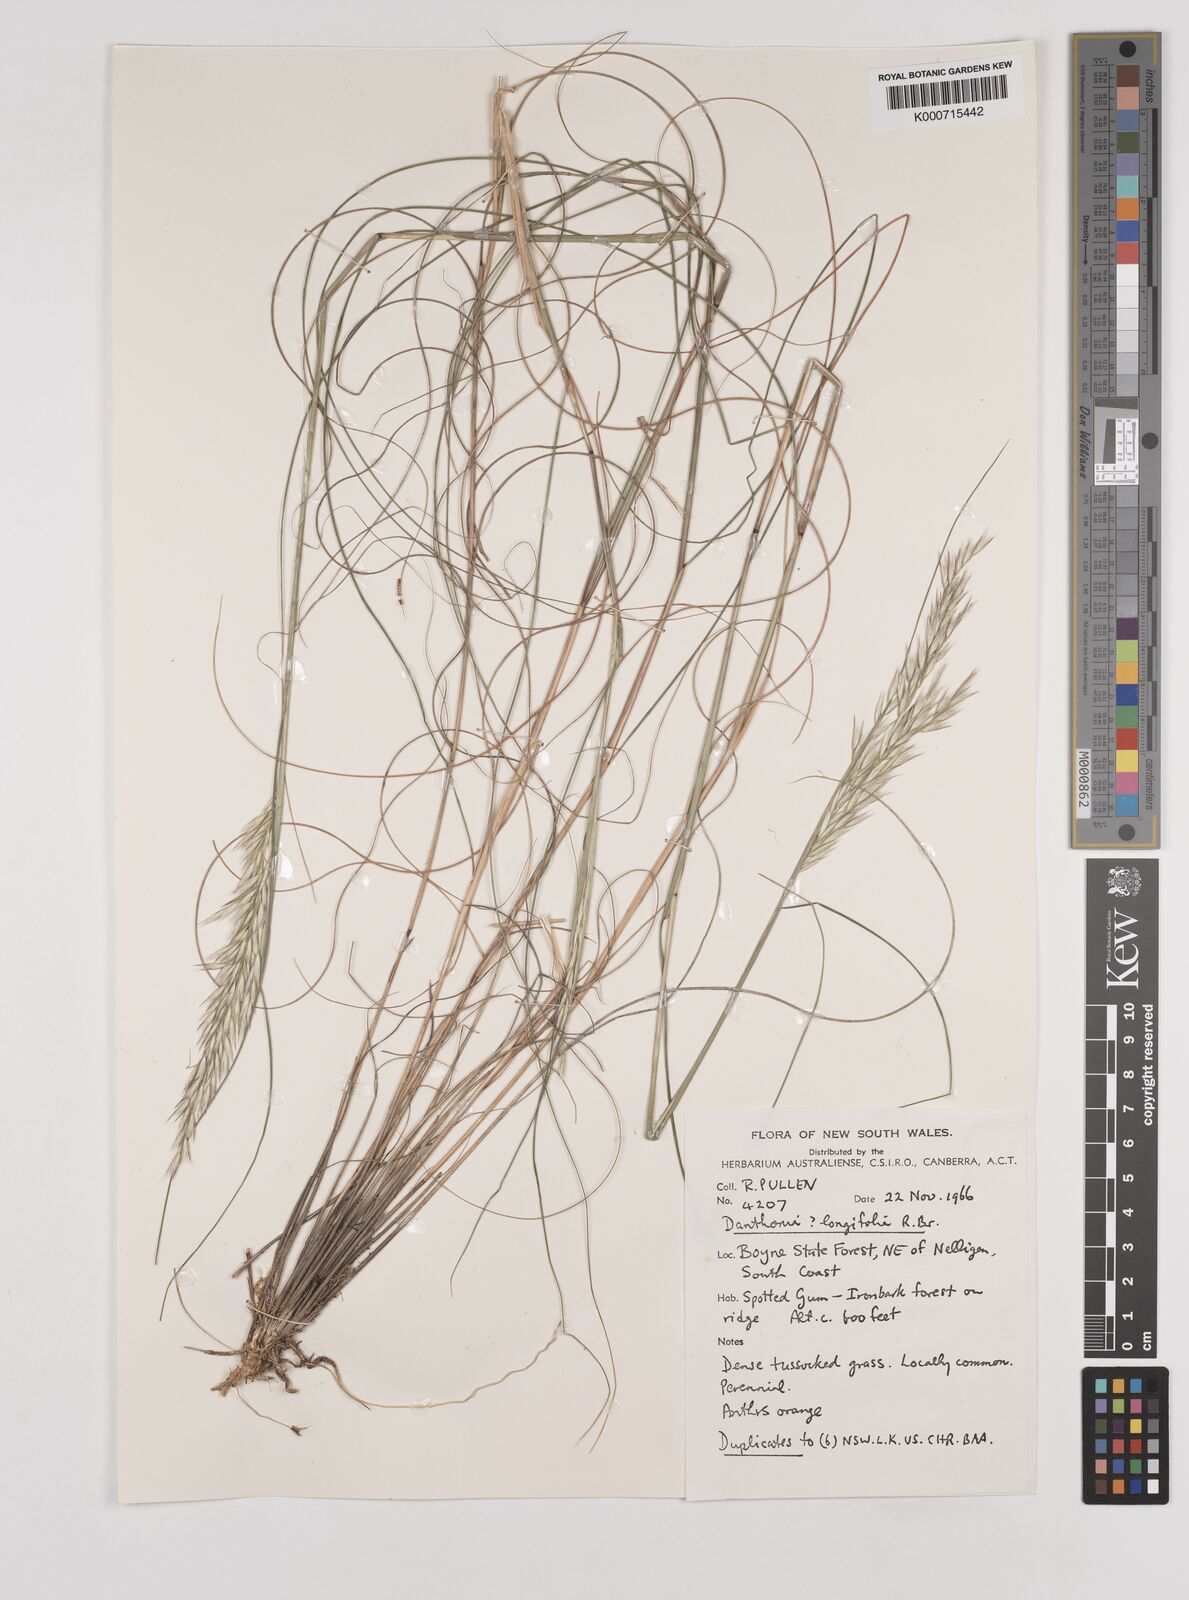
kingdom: Plantae
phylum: Tracheophyta
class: Liliopsida
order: Poales
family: Poaceae
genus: Rytidosperma
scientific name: Rytidosperma longifolium
